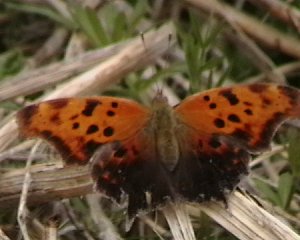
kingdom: Animalia
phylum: Arthropoda
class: Insecta
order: Lepidoptera
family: Nymphalidae
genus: Polygonia
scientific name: Polygonia interrogationis
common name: Question Mark
